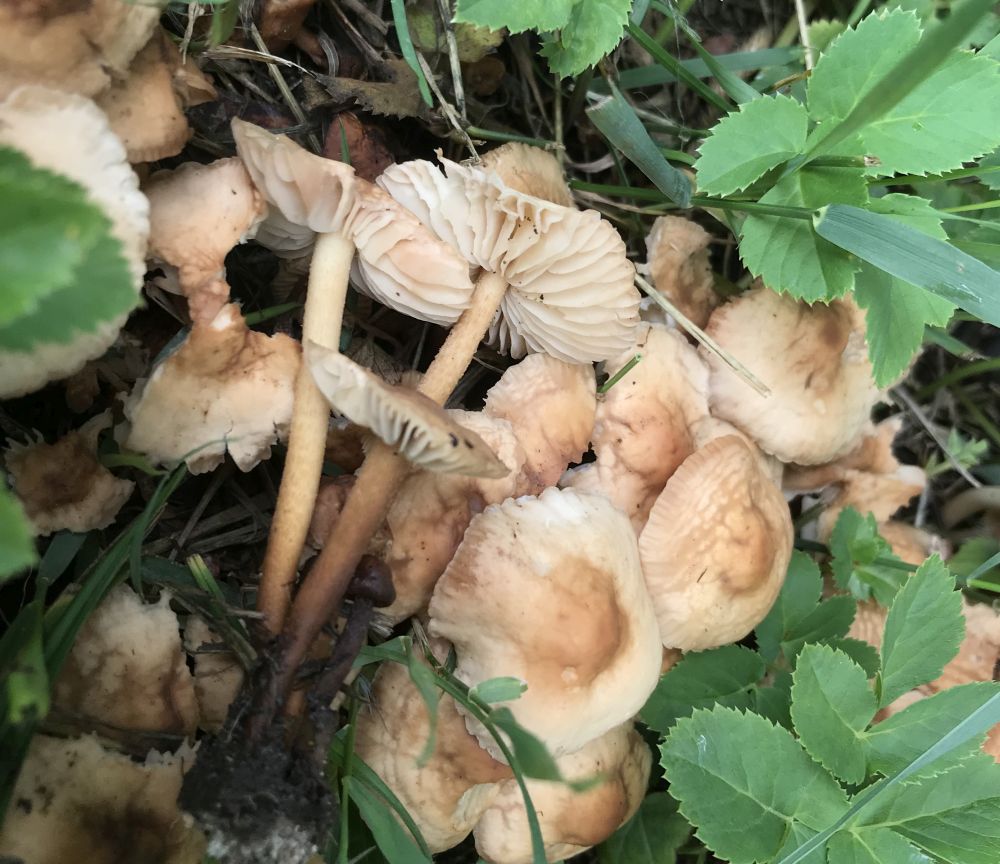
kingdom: Fungi
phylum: Basidiomycota
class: Agaricomycetes
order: Agaricales
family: Marasmiaceae
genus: Marasmius
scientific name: Marasmius oreades
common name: elledans-bruskhat
